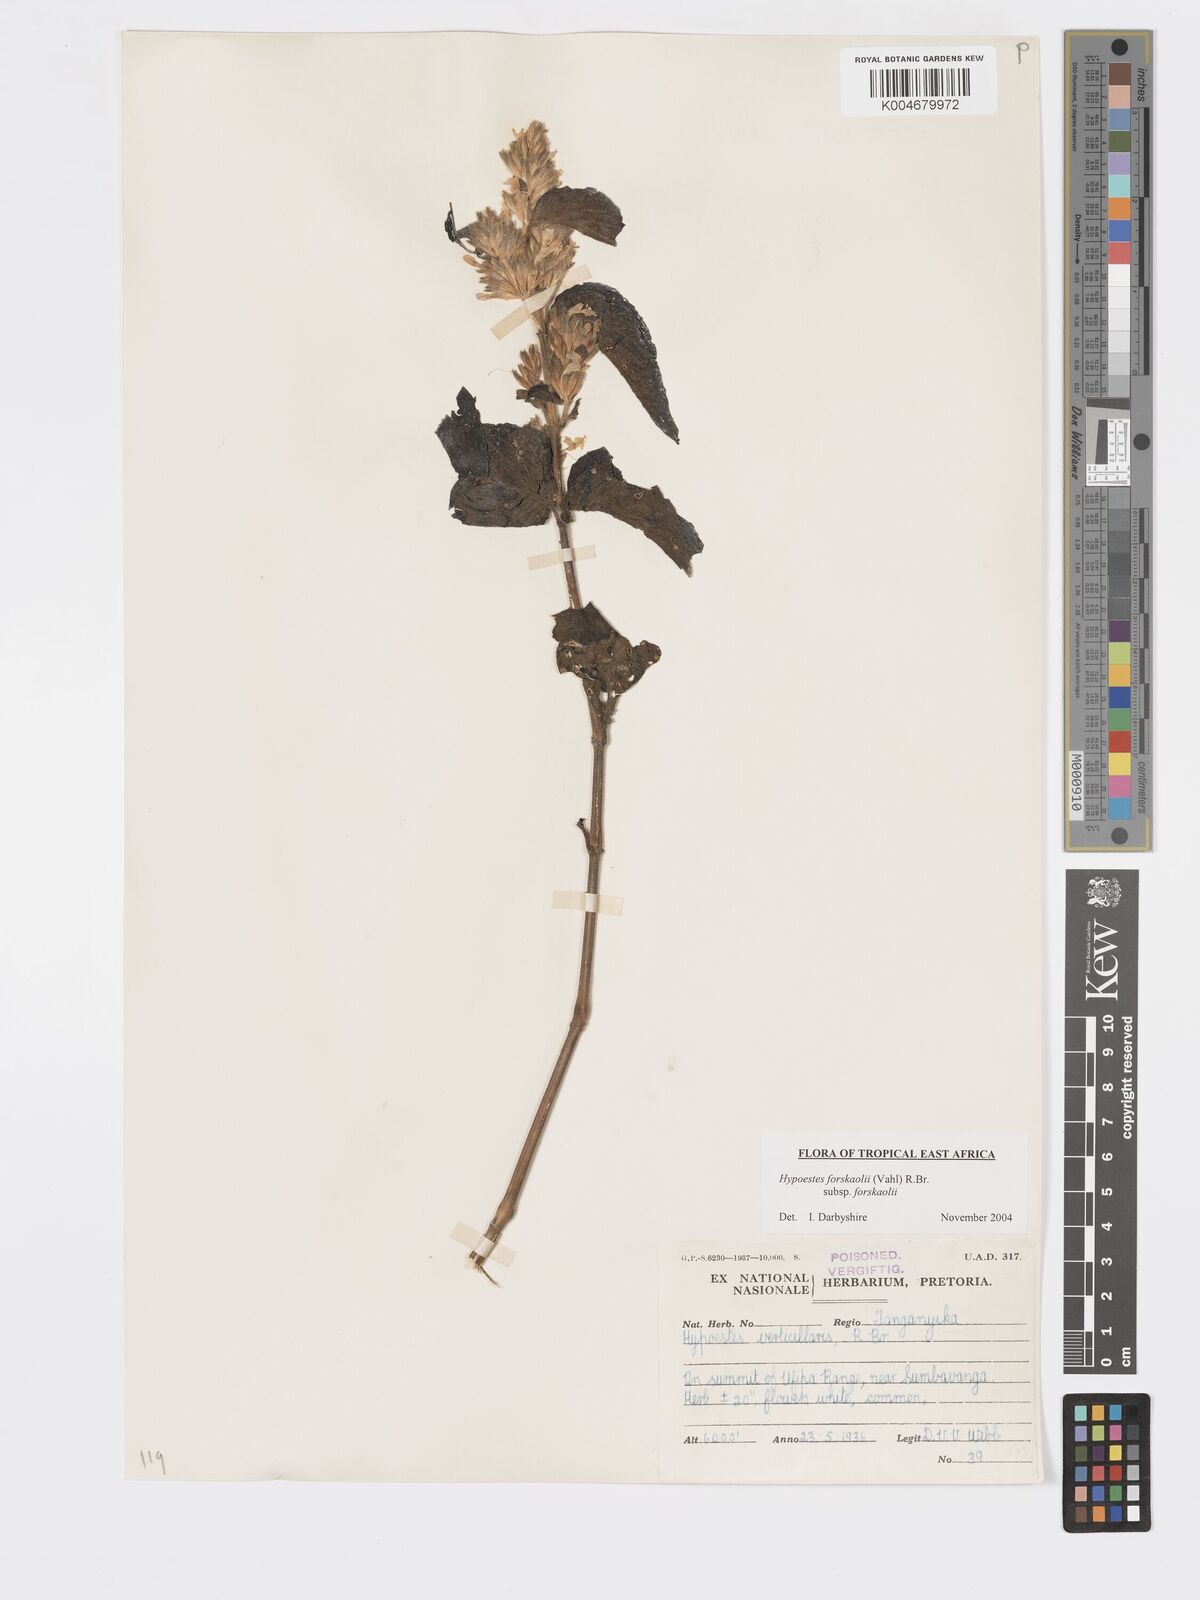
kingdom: Plantae
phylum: Tracheophyta
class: Magnoliopsida
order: Lamiales
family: Acanthaceae
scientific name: Acanthaceae
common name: Acanthaceae
